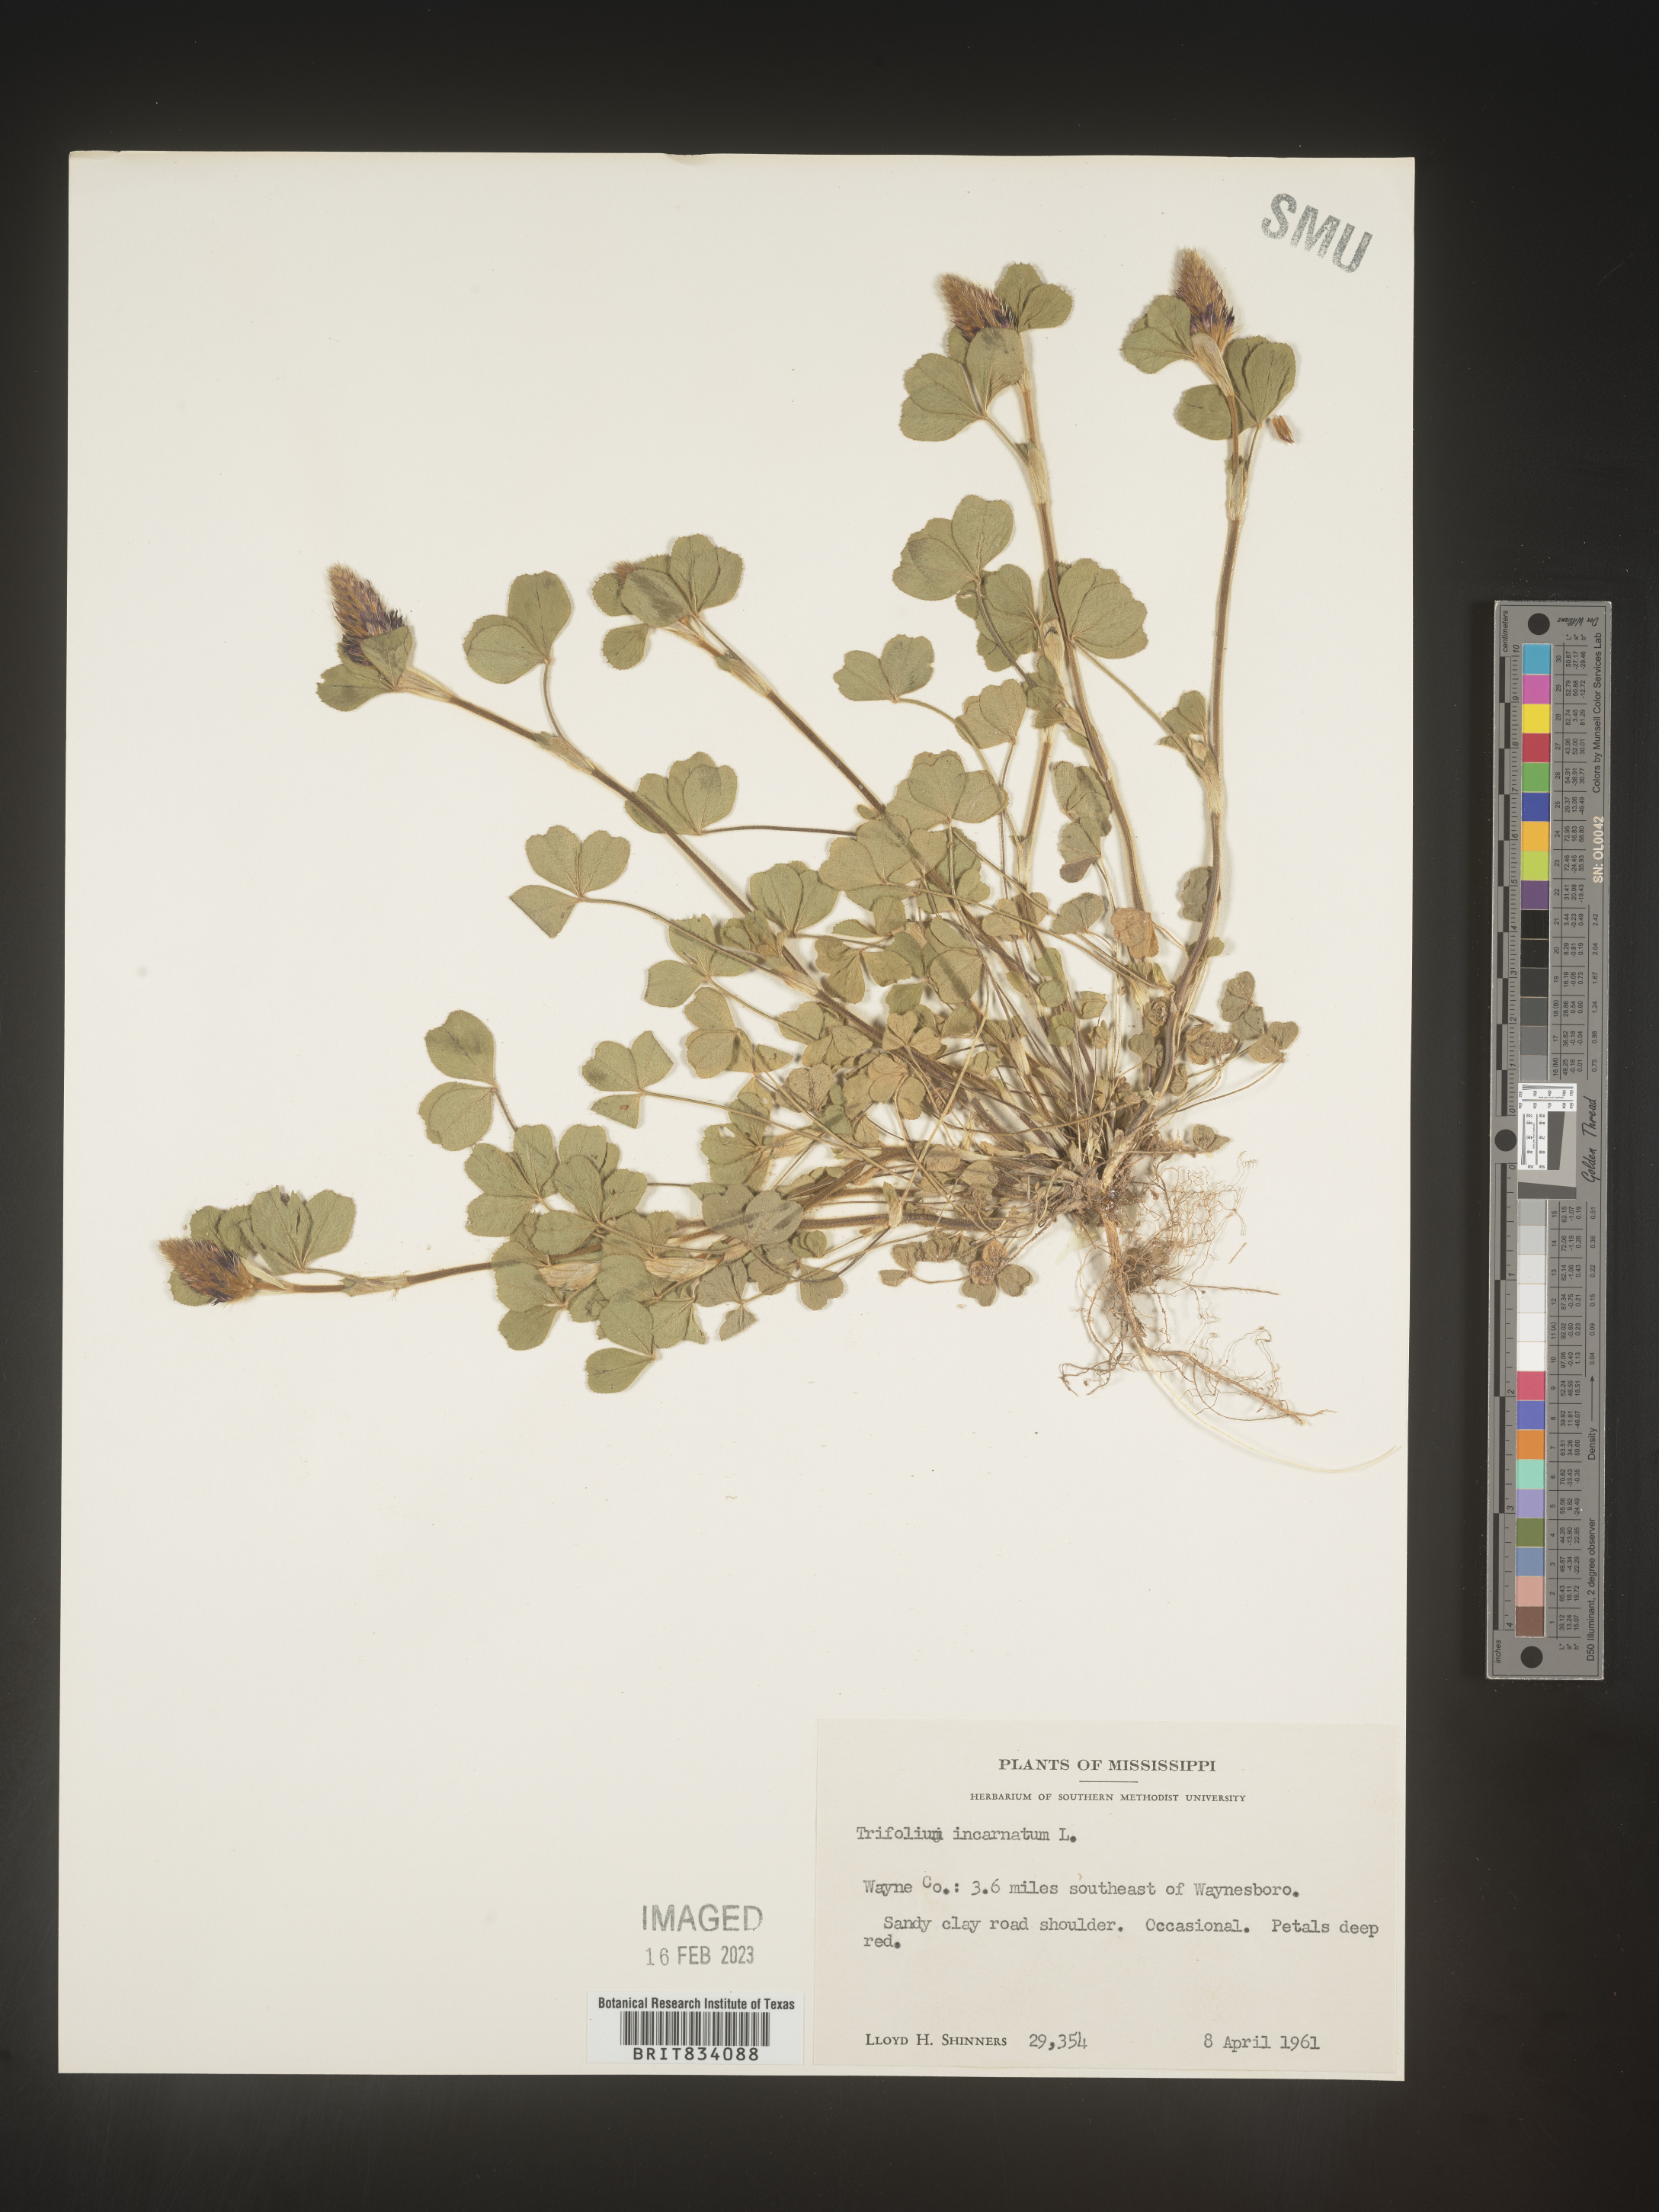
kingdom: Plantae
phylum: Tracheophyta
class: Magnoliopsida
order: Fabales
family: Fabaceae
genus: Trifolium
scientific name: Trifolium incarnatum
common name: Crimson clover
